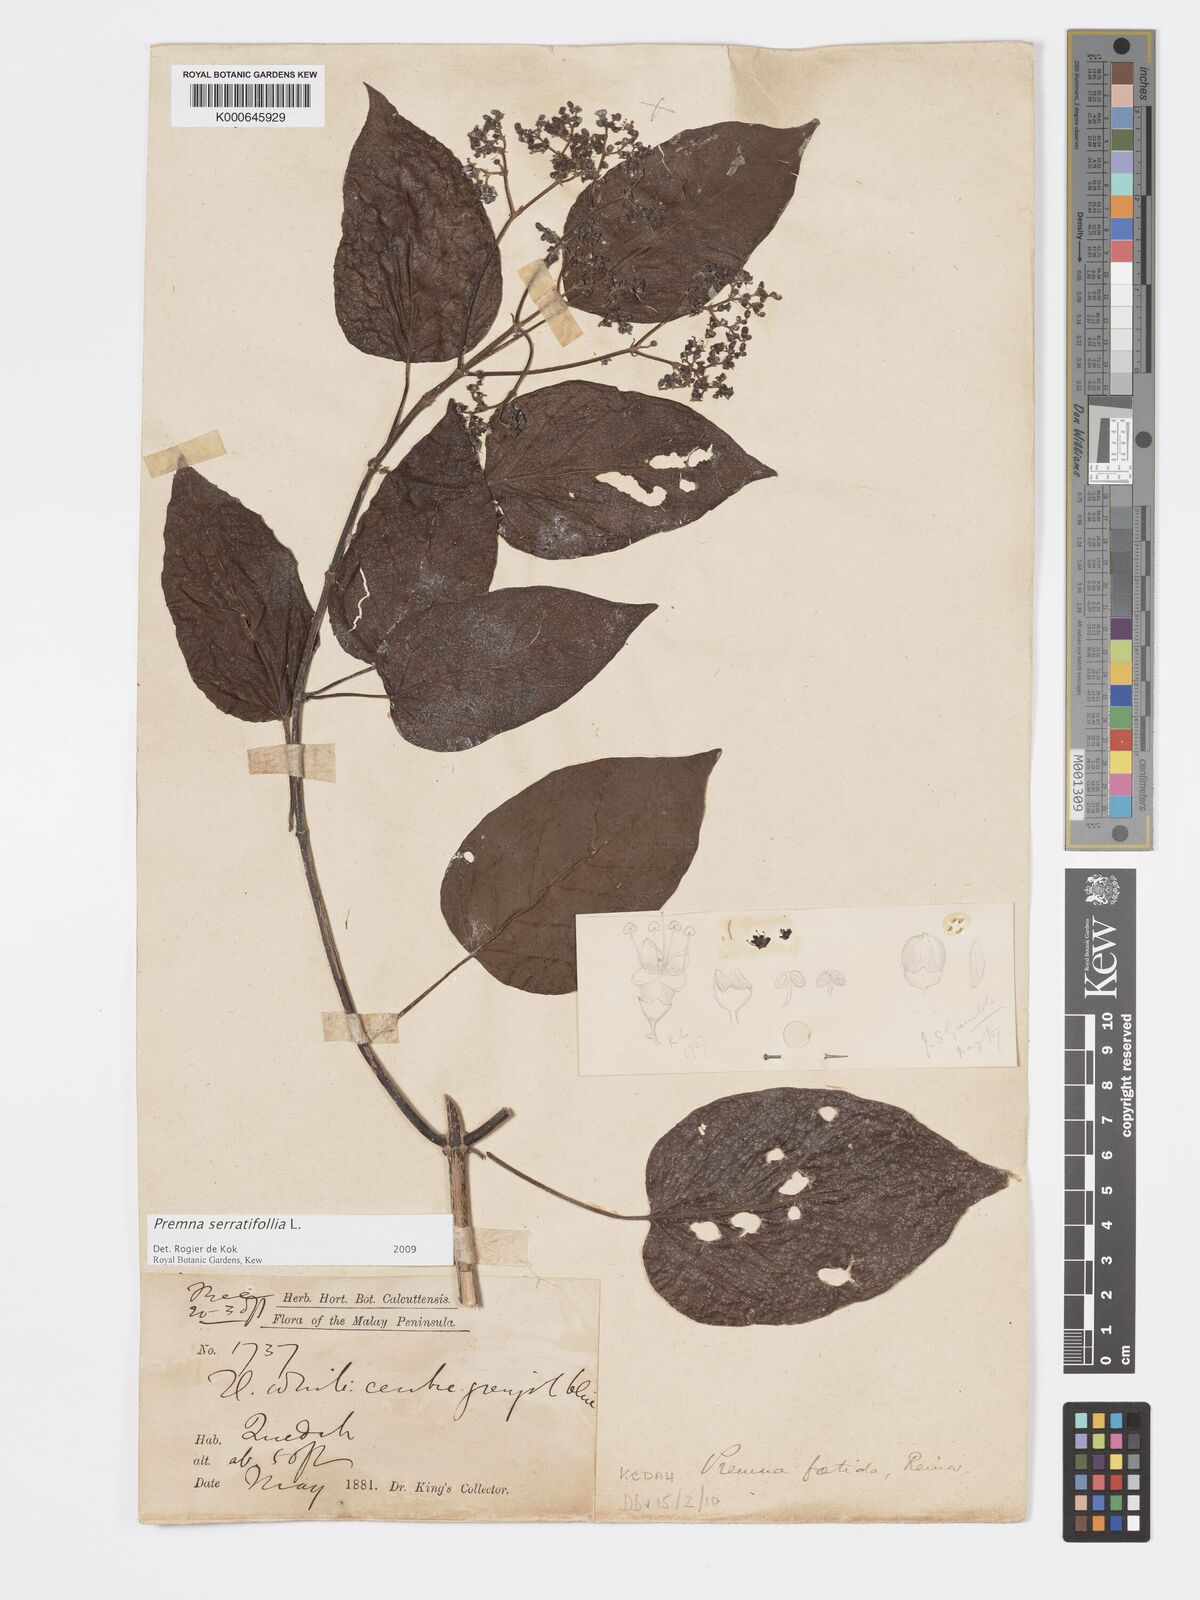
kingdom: Plantae
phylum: Tracheophyta
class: Magnoliopsida
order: Lamiales
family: Lamiaceae
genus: Premna
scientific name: Premna serratifolia
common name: Bastard guelder
